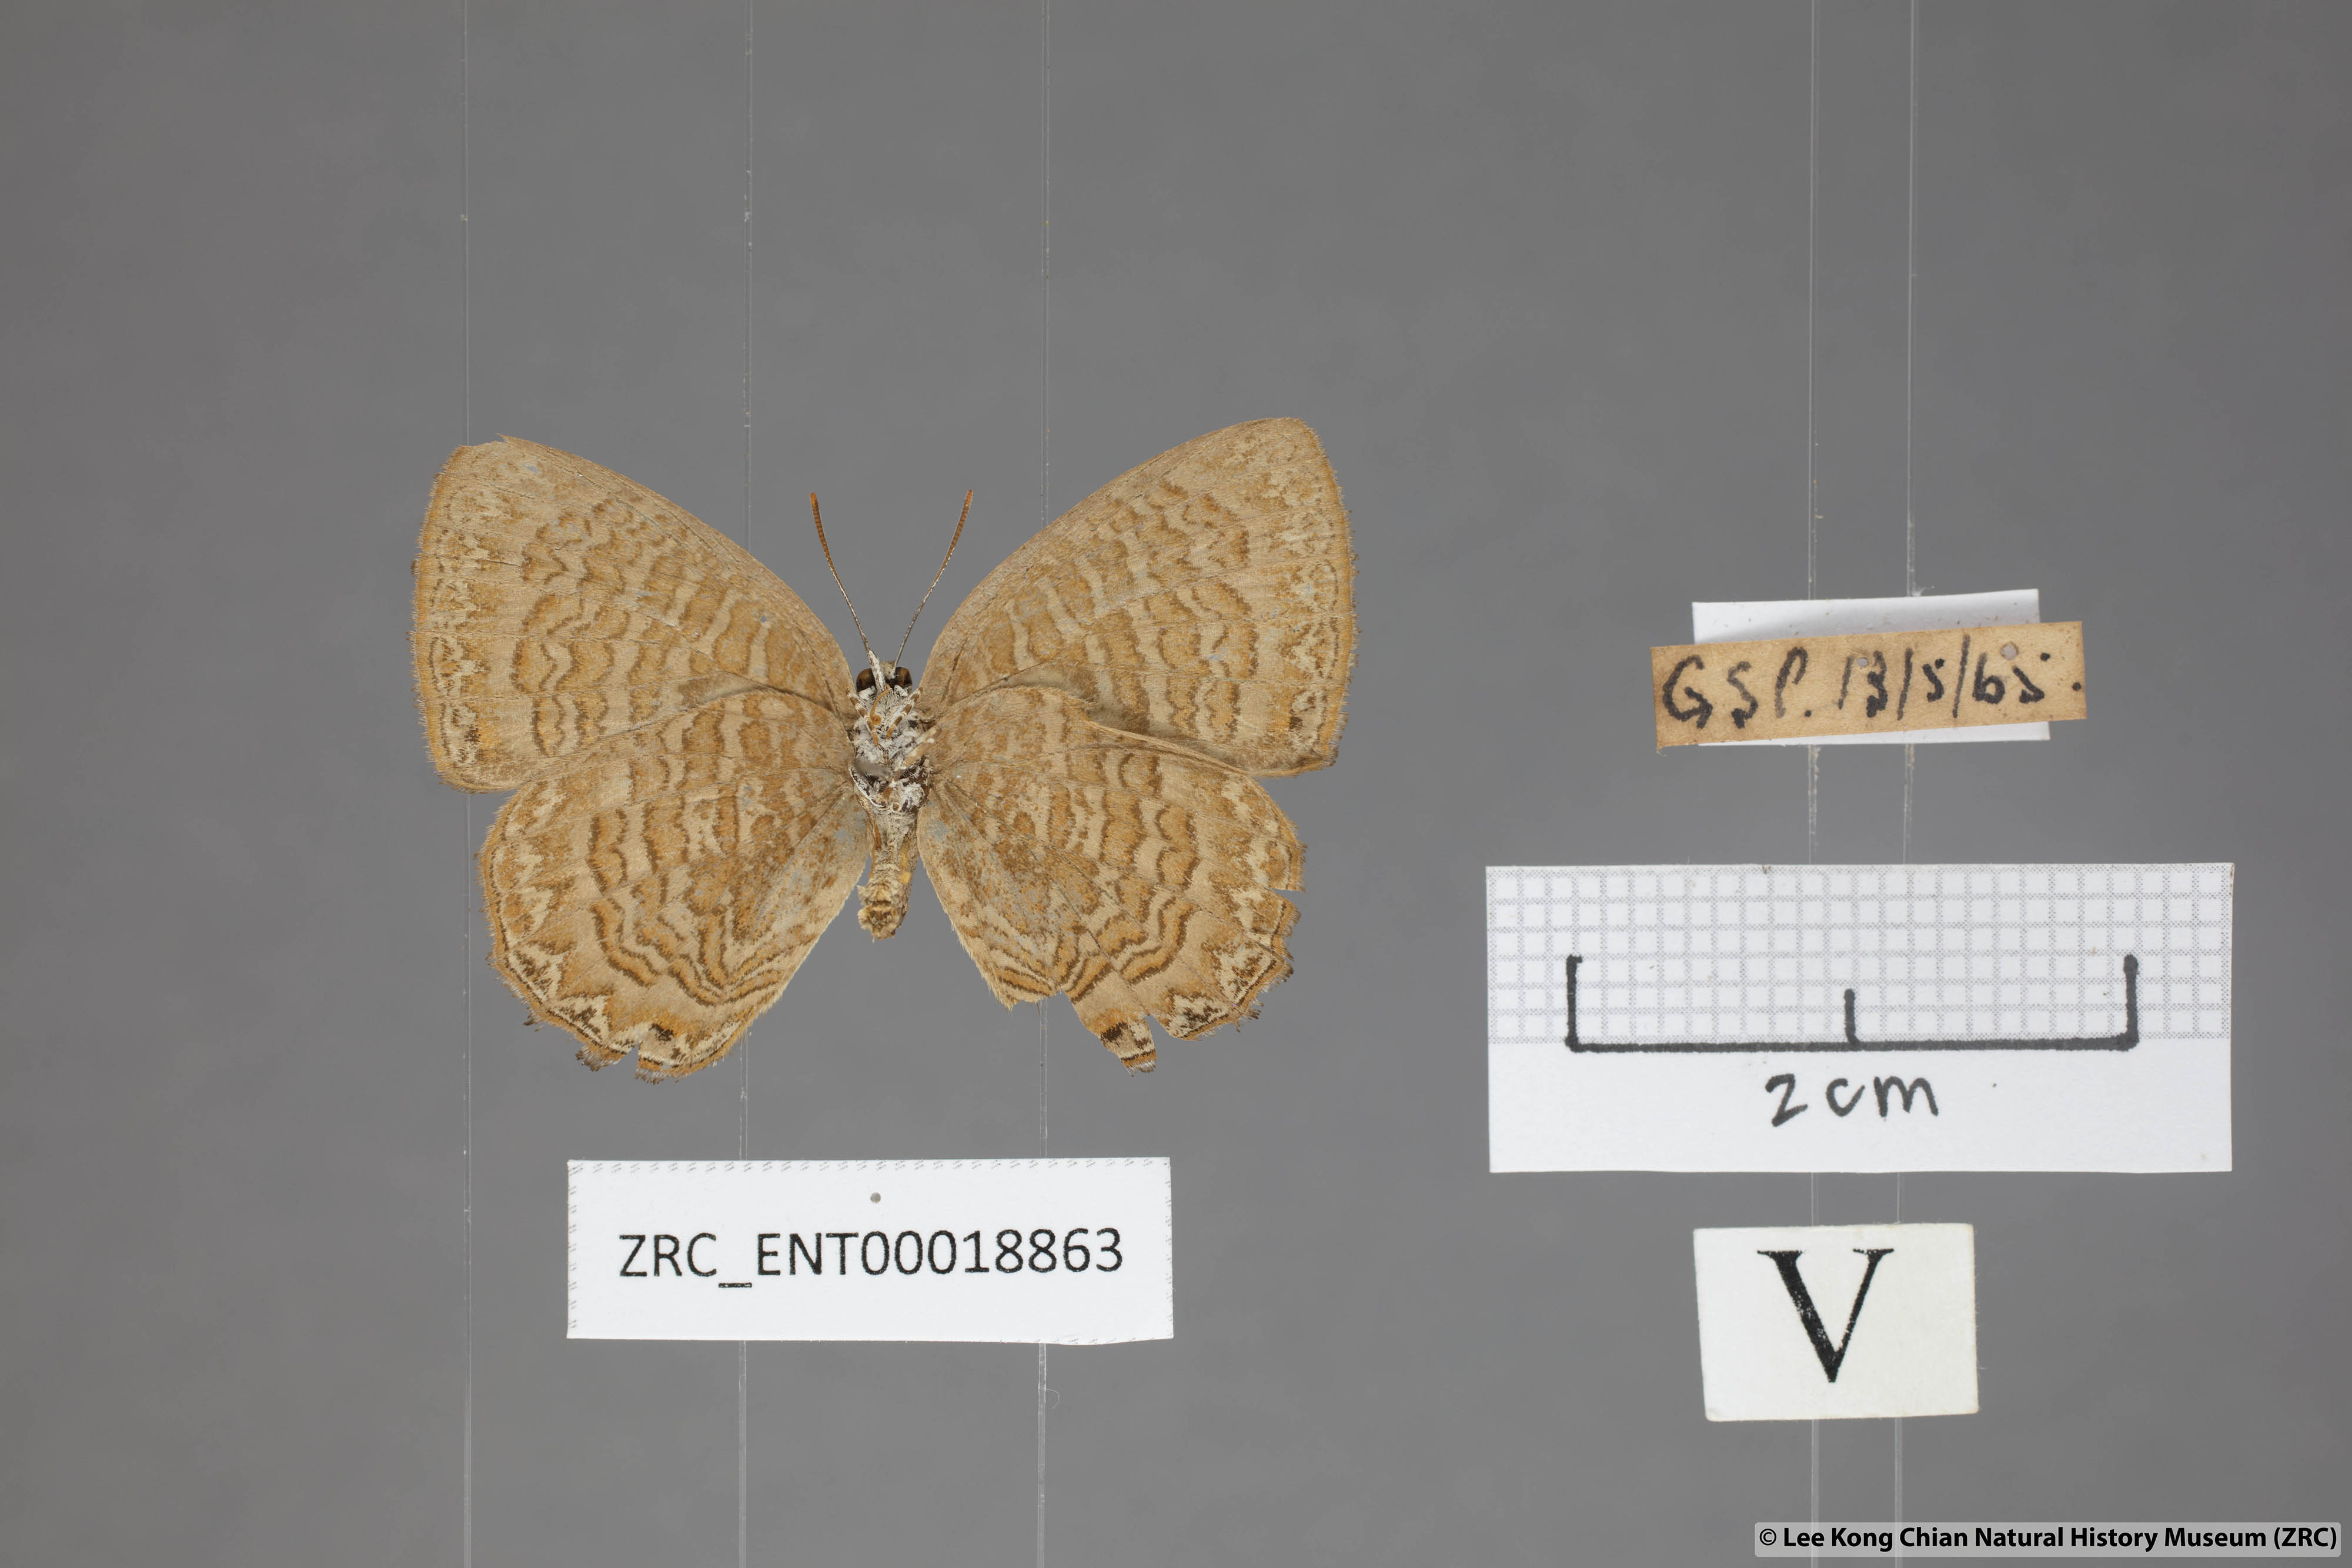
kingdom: Animalia
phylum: Arthropoda
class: Insecta
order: Lepidoptera
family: Lycaenidae
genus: Poritia
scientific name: Poritia sumatrae
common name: Sumatran gem
